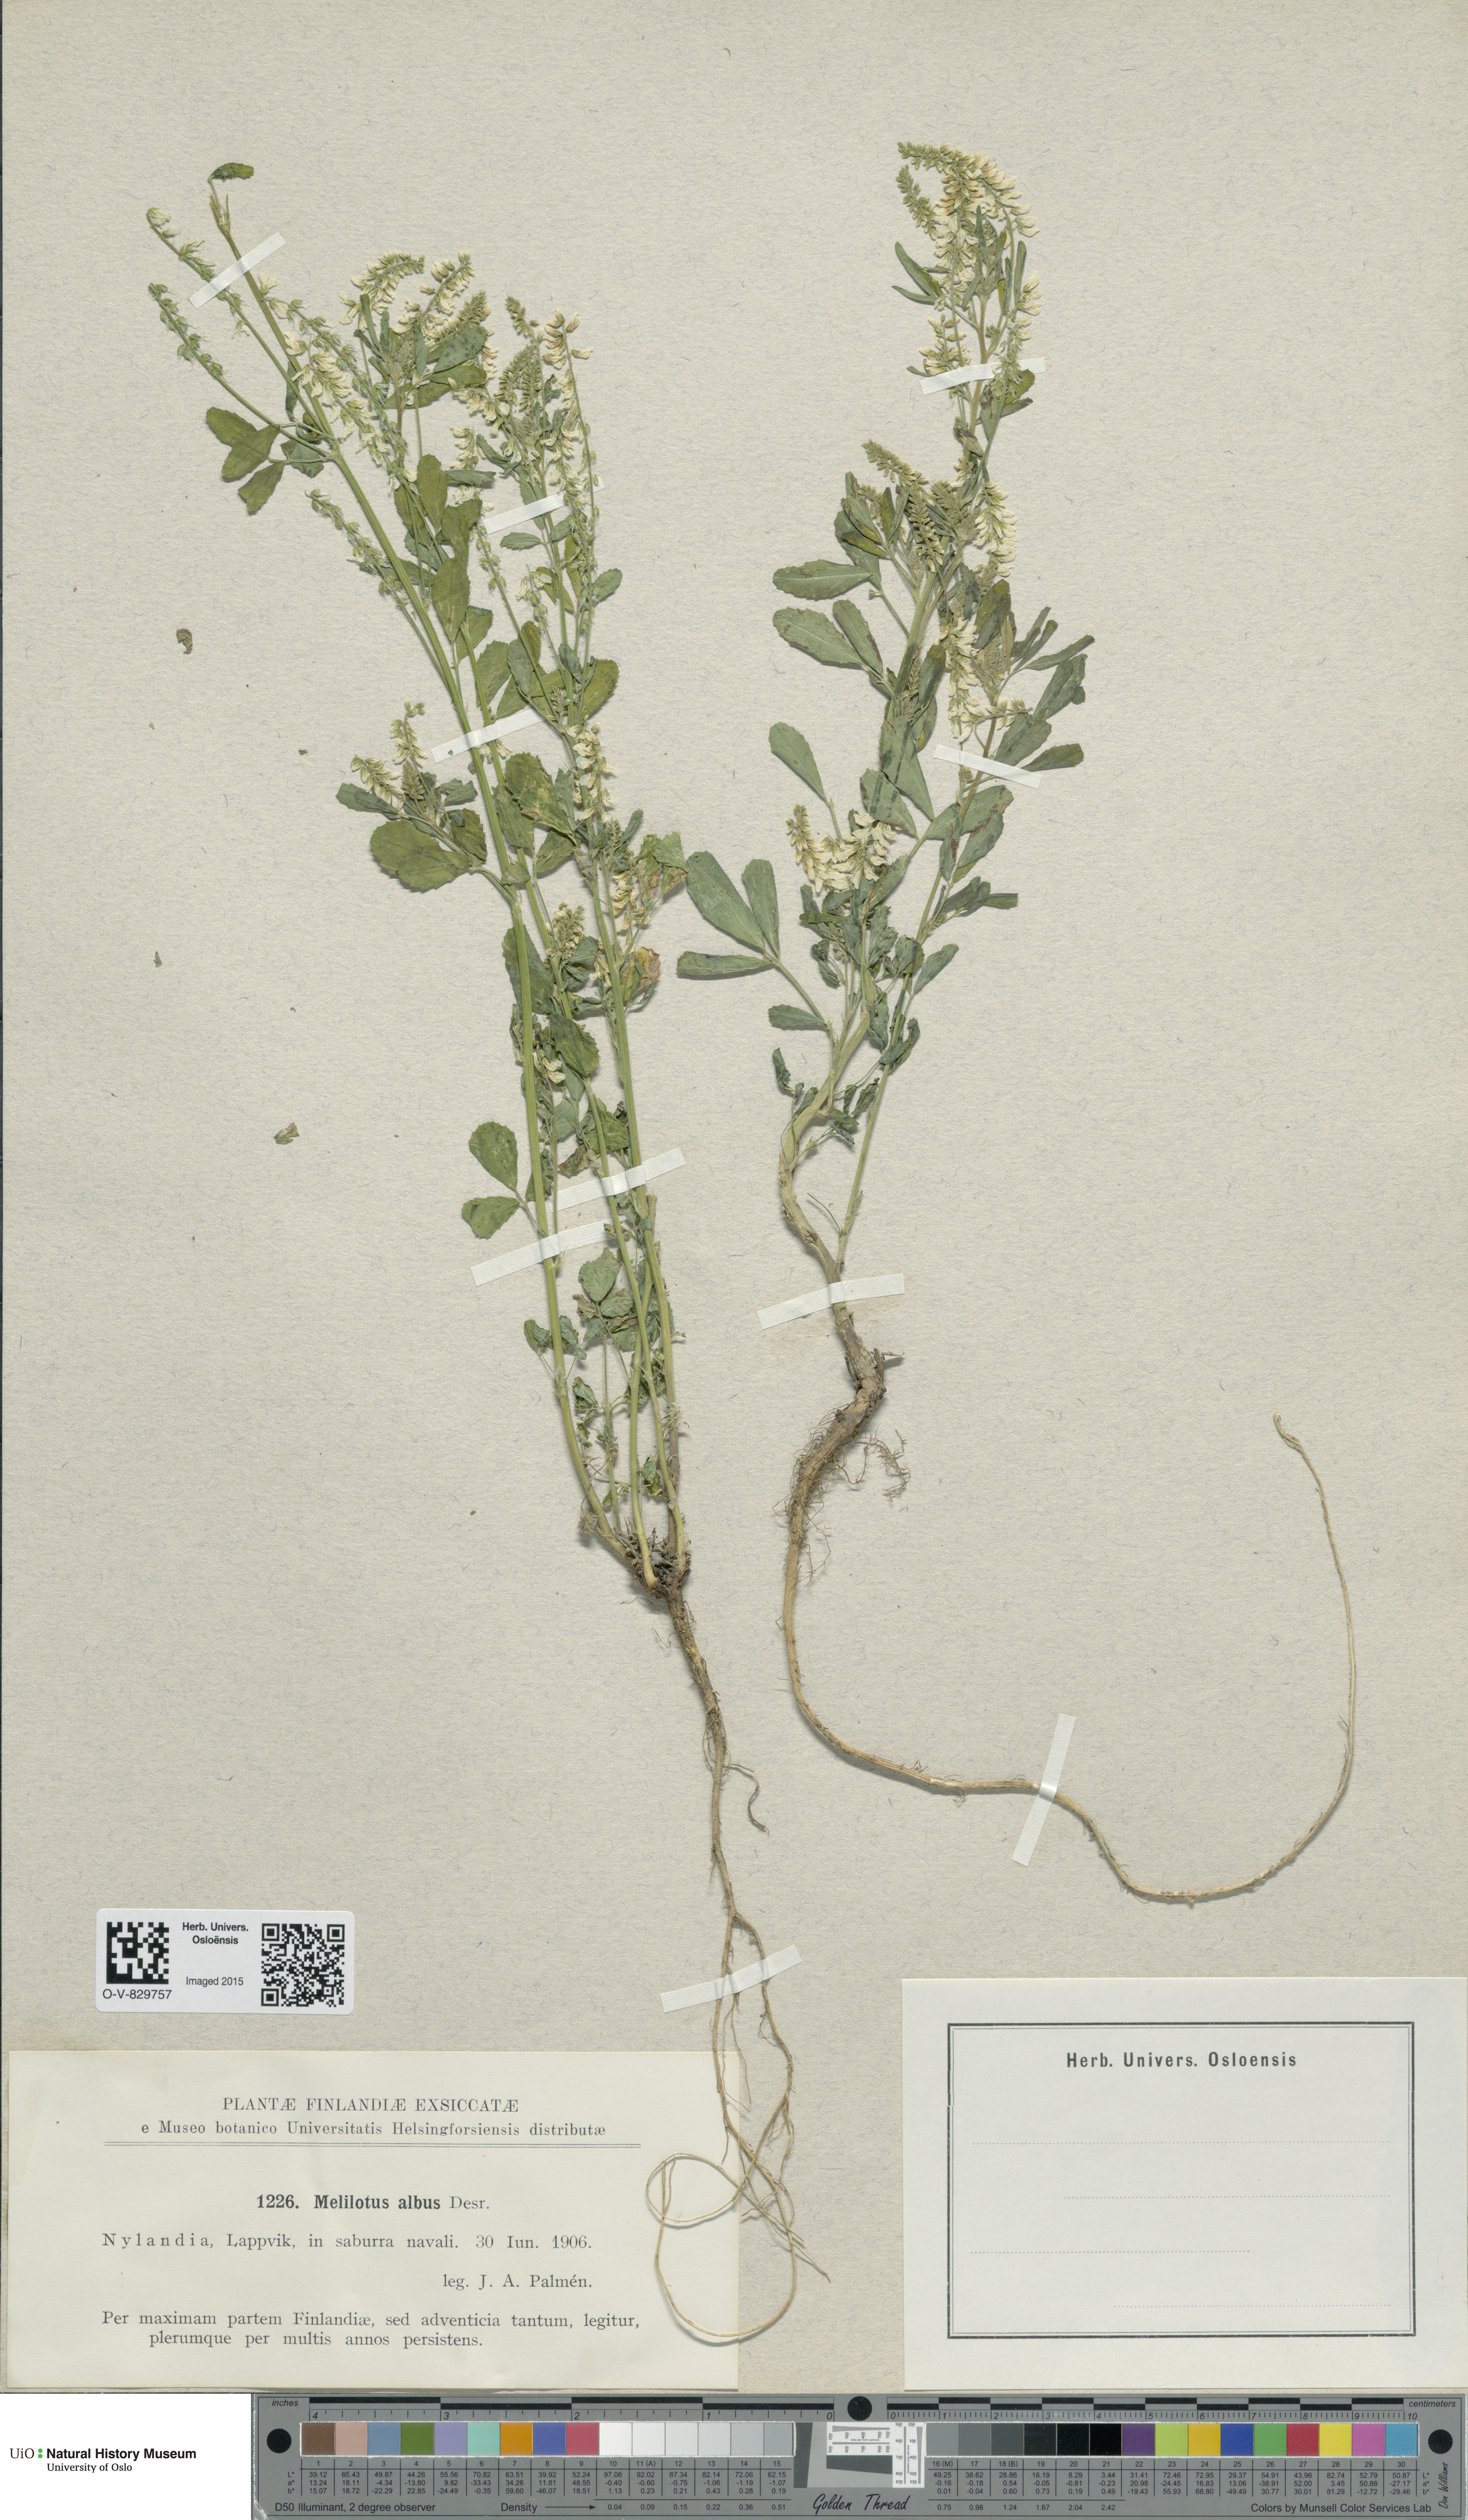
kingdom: Plantae
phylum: Tracheophyta
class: Magnoliopsida
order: Fabales
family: Fabaceae
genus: Melilotus
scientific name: Melilotus albus
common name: White melilot
